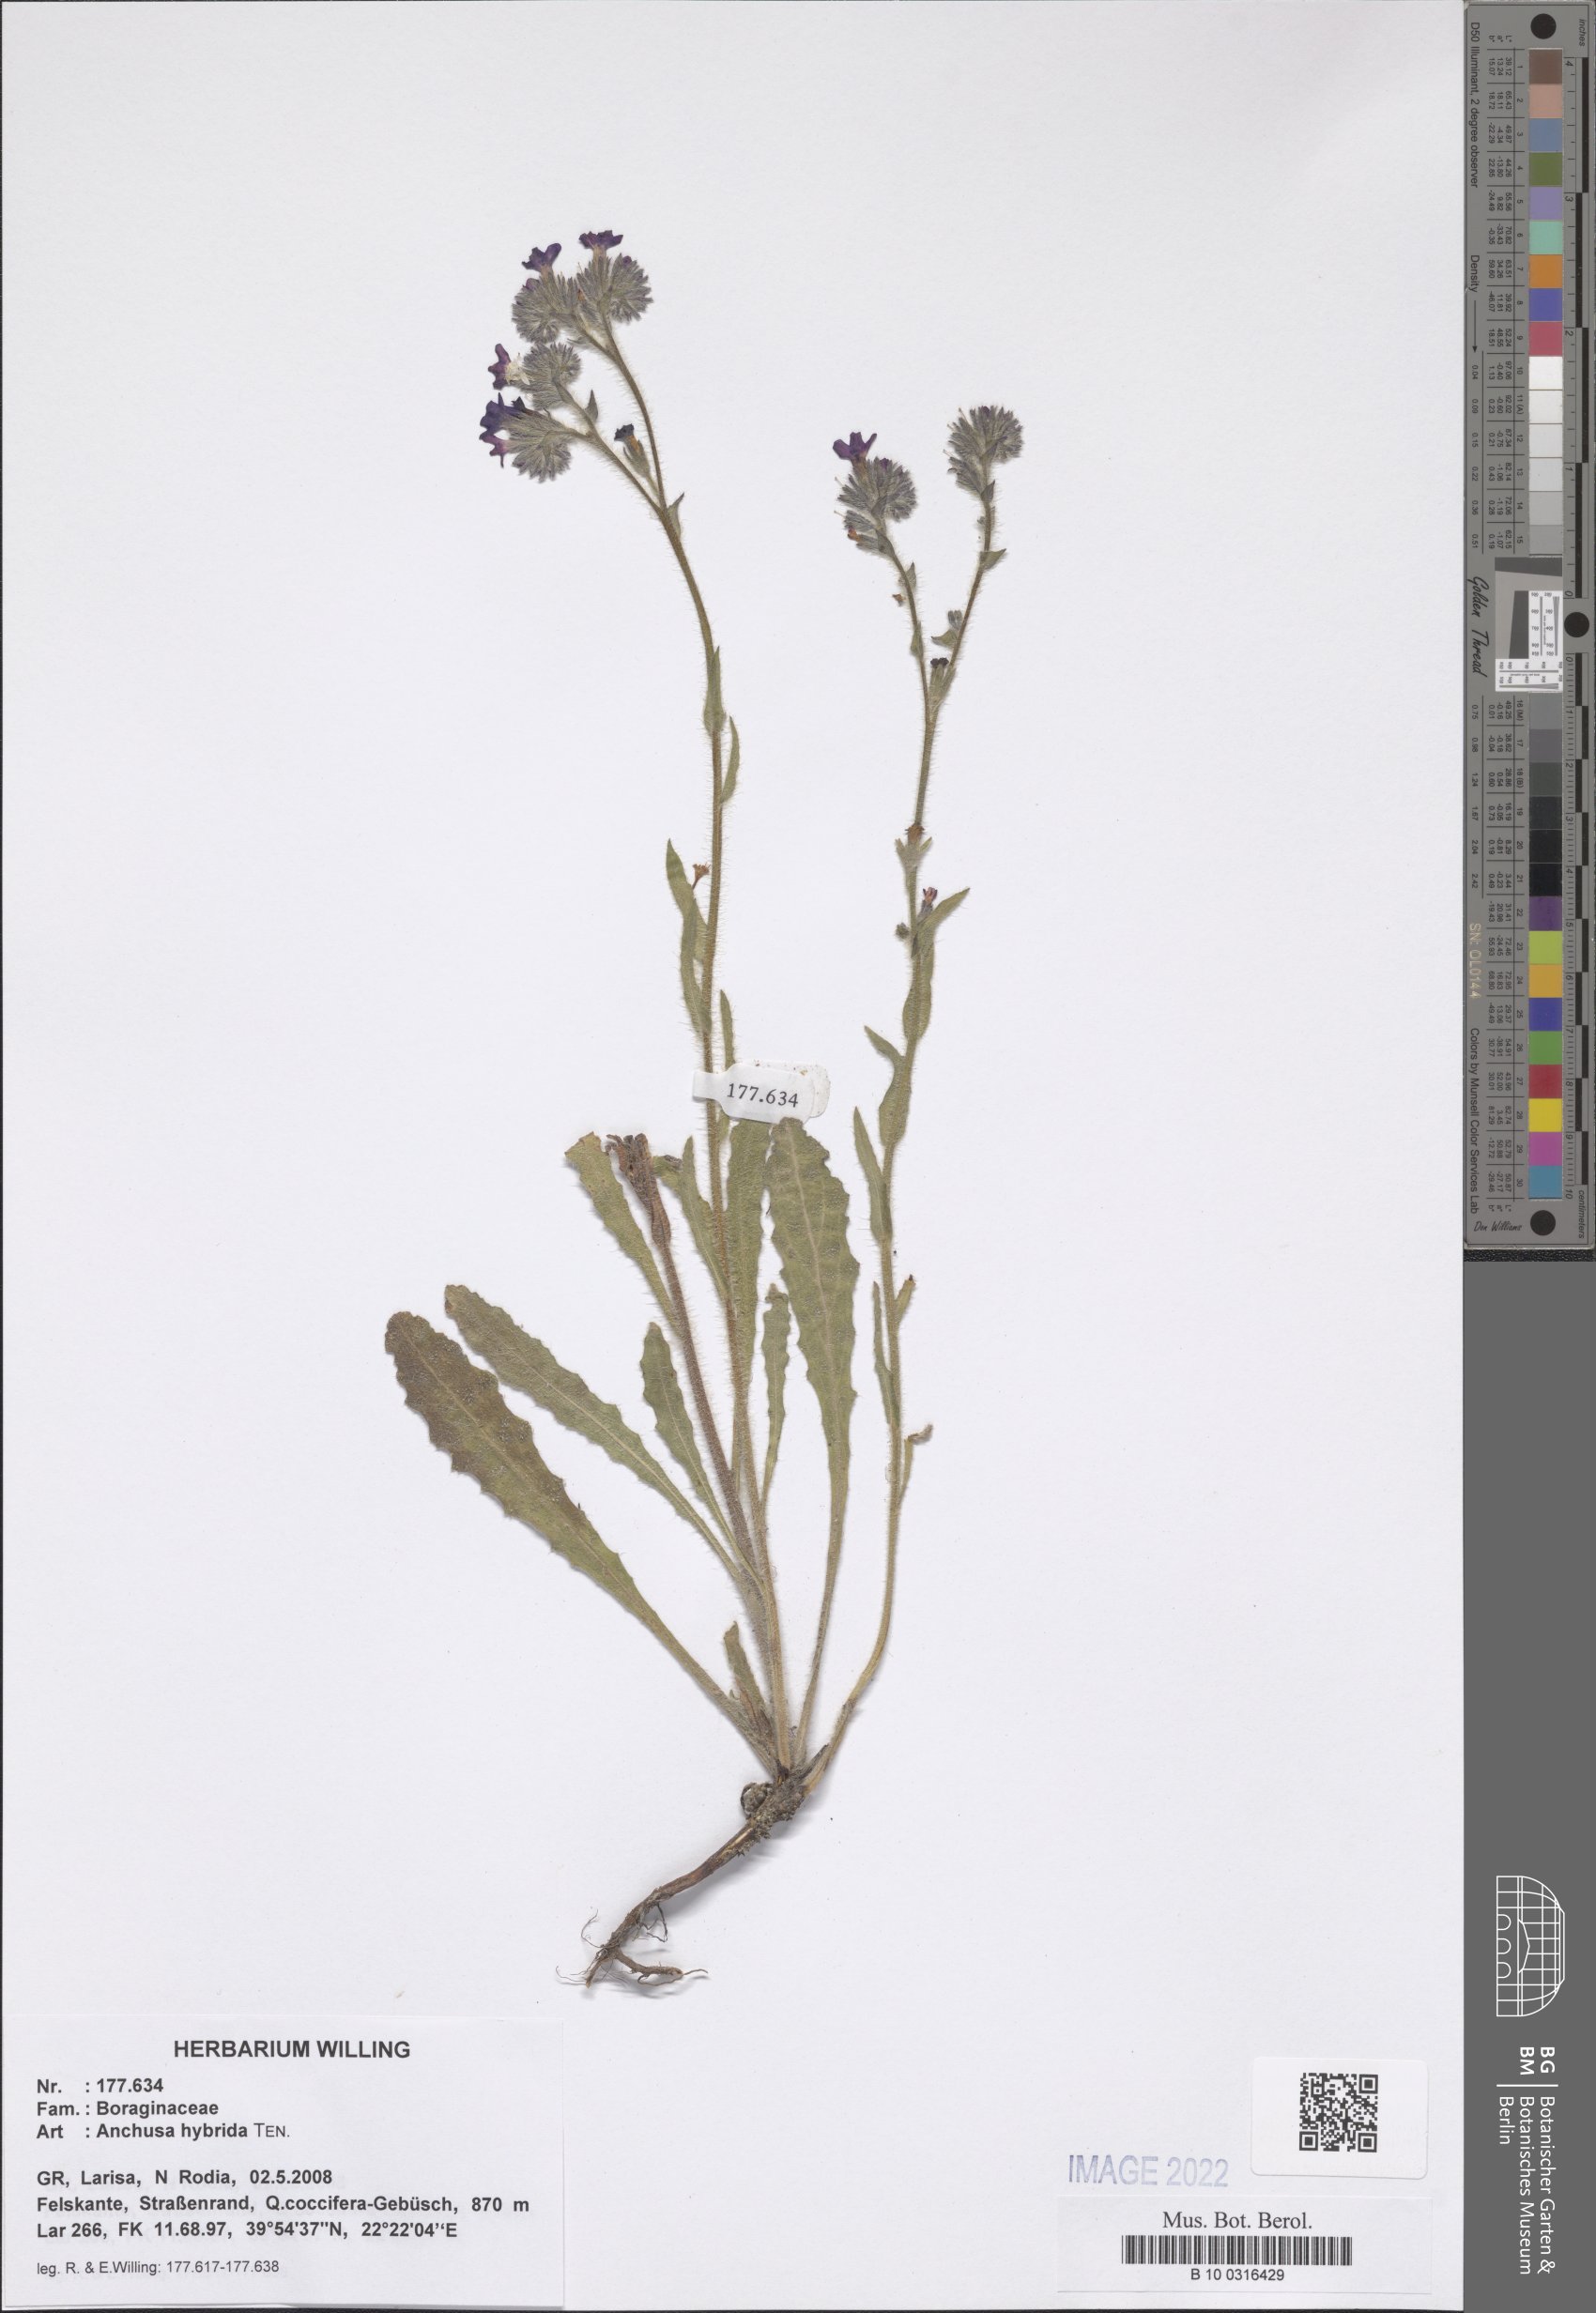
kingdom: Plantae
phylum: Tracheophyta
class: Magnoliopsida
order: Boraginales
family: Boraginaceae
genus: Anchusa
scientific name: Anchusa hybrida
